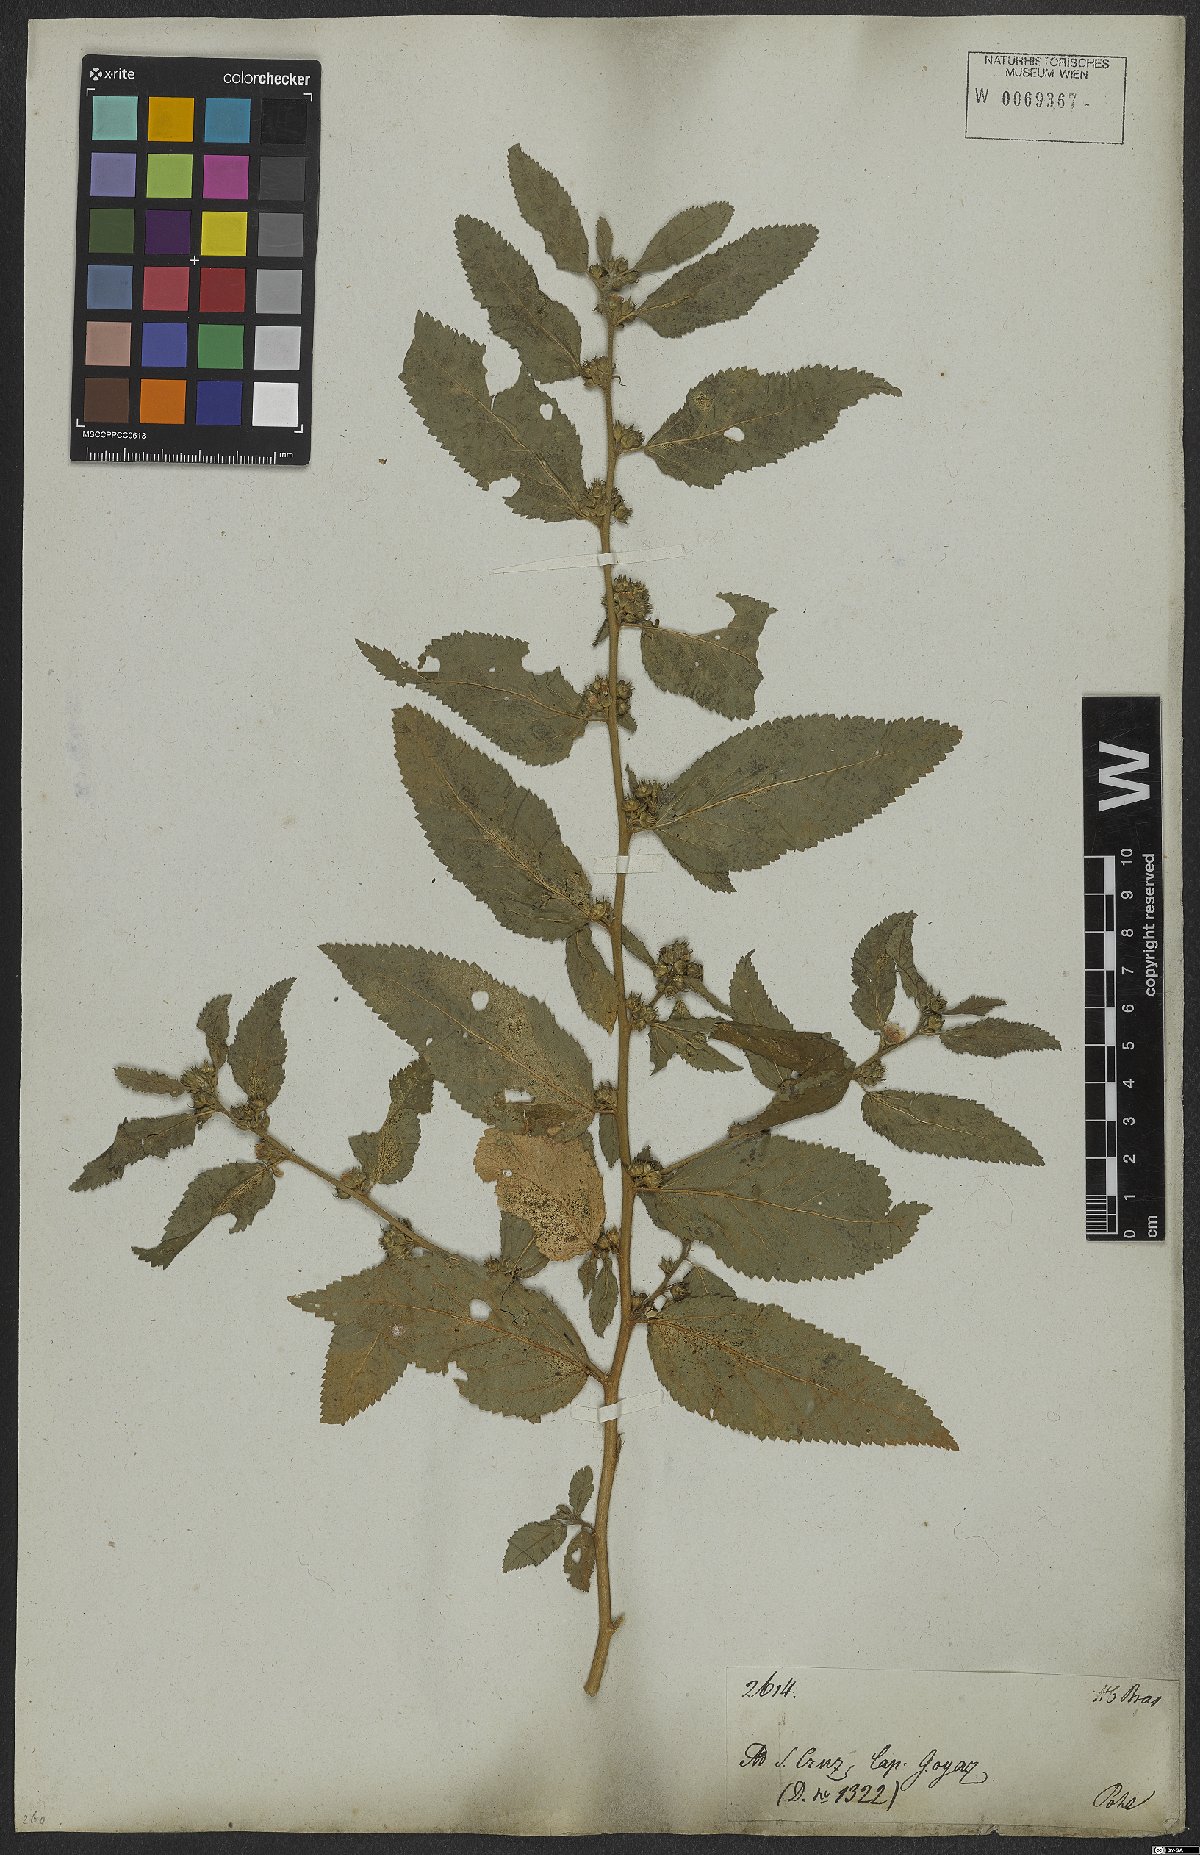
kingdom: Plantae
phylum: Tracheophyta
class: Magnoliopsida
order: Malvales
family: Malvaceae
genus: Sida
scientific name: Sida
